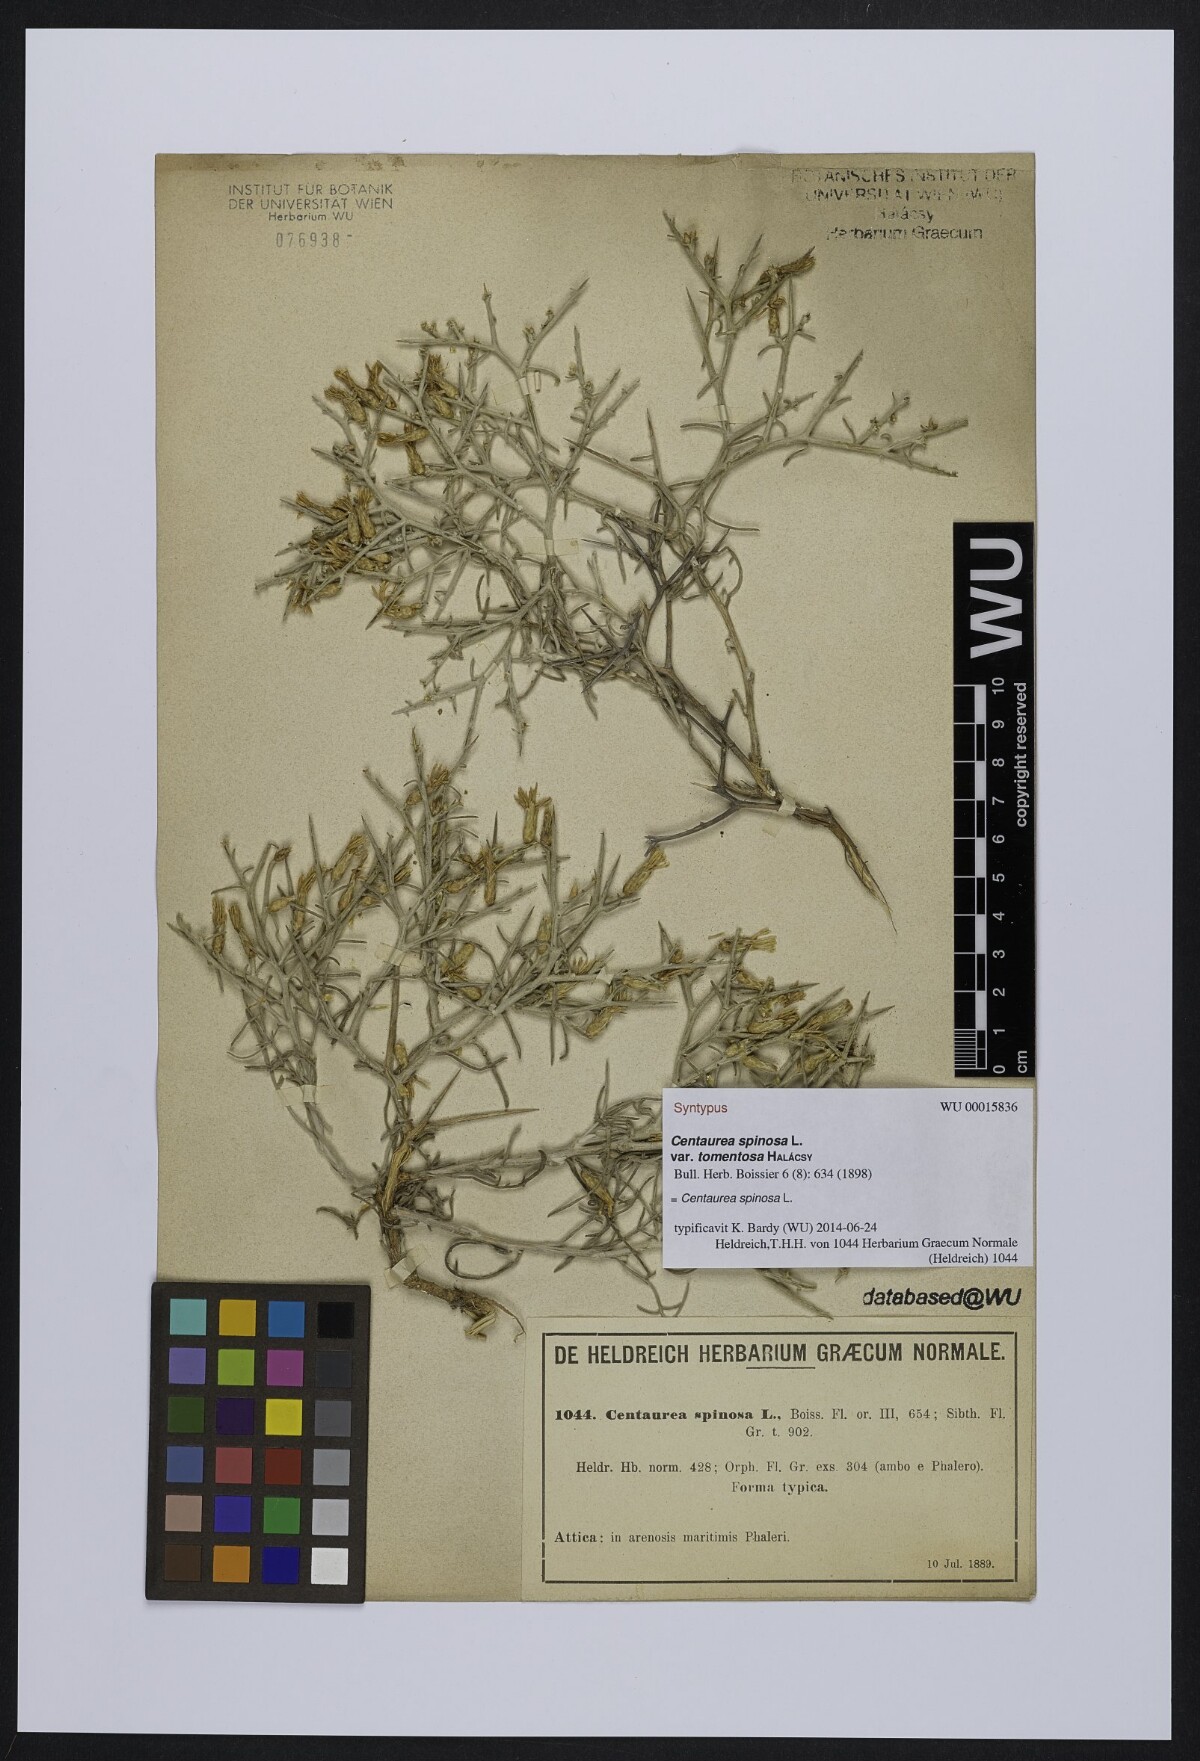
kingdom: Plantae
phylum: Tracheophyta
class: Magnoliopsida
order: Asterales
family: Asteraceae
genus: Centaurea
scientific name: Centaurea spinosa
